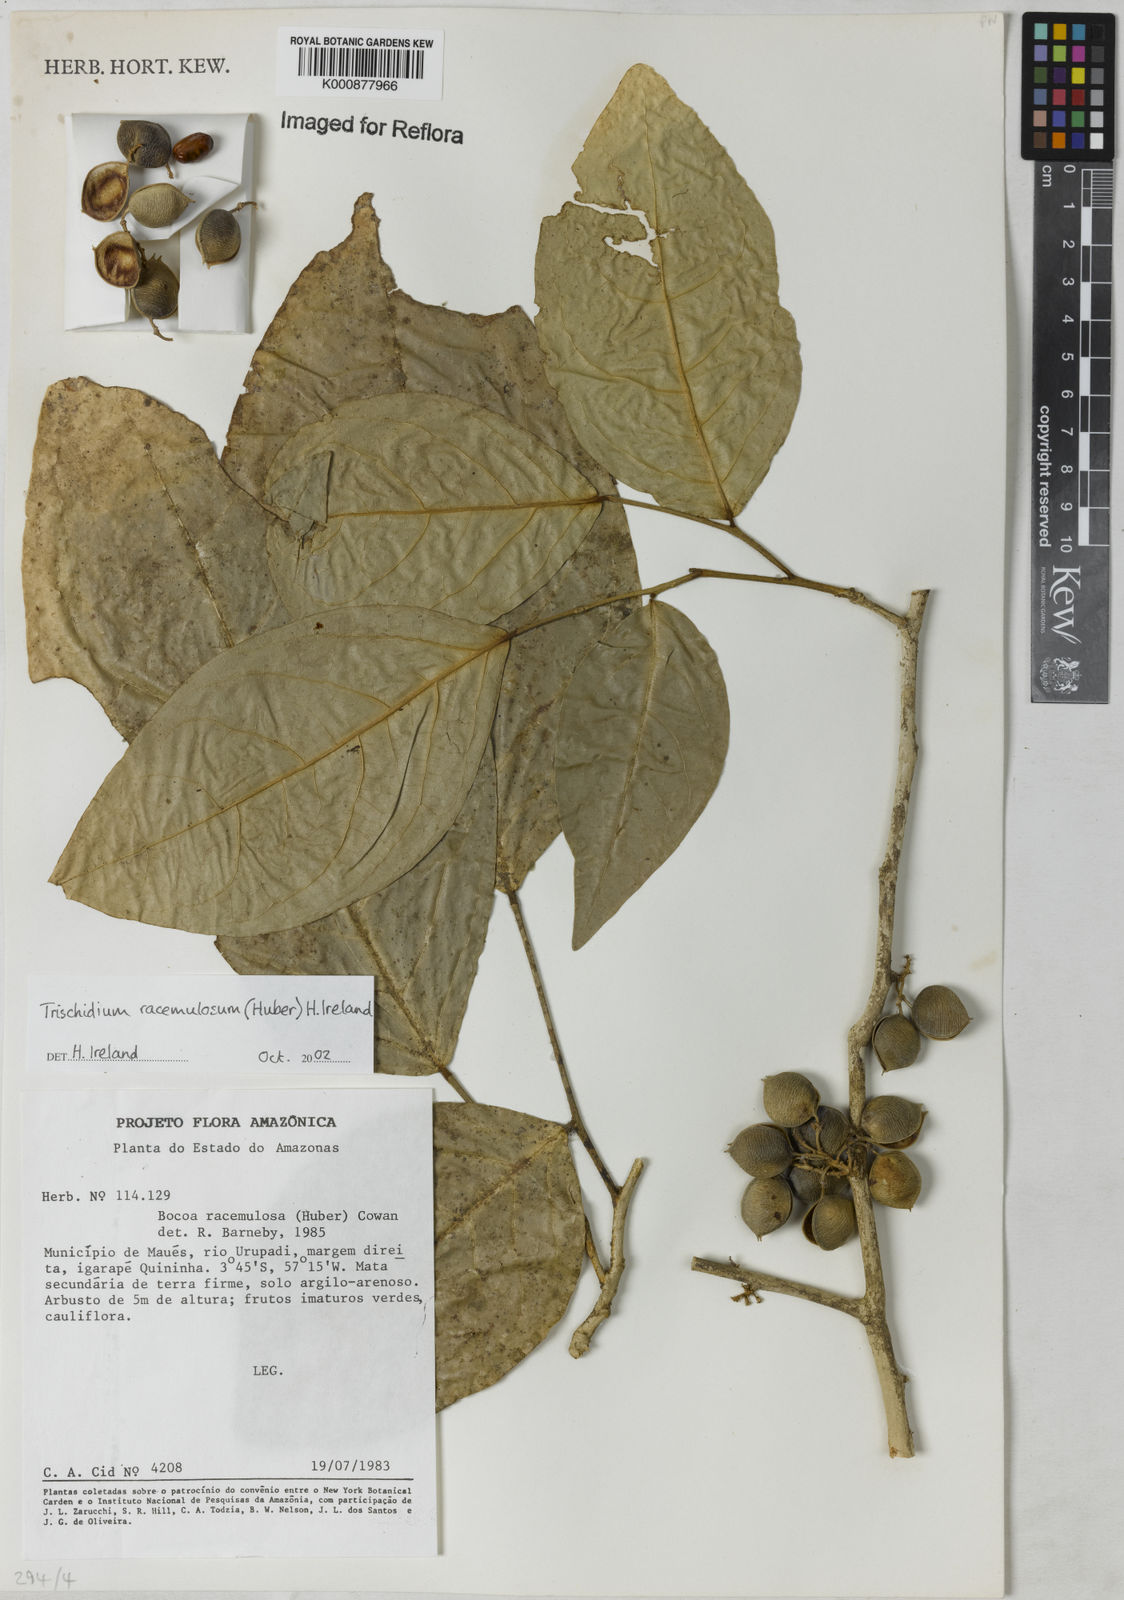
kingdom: Plantae
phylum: Tracheophyta
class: Magnoliopsida
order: Fabales
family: Fabaceae
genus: Trischidium
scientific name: Trischidium racemulosum
